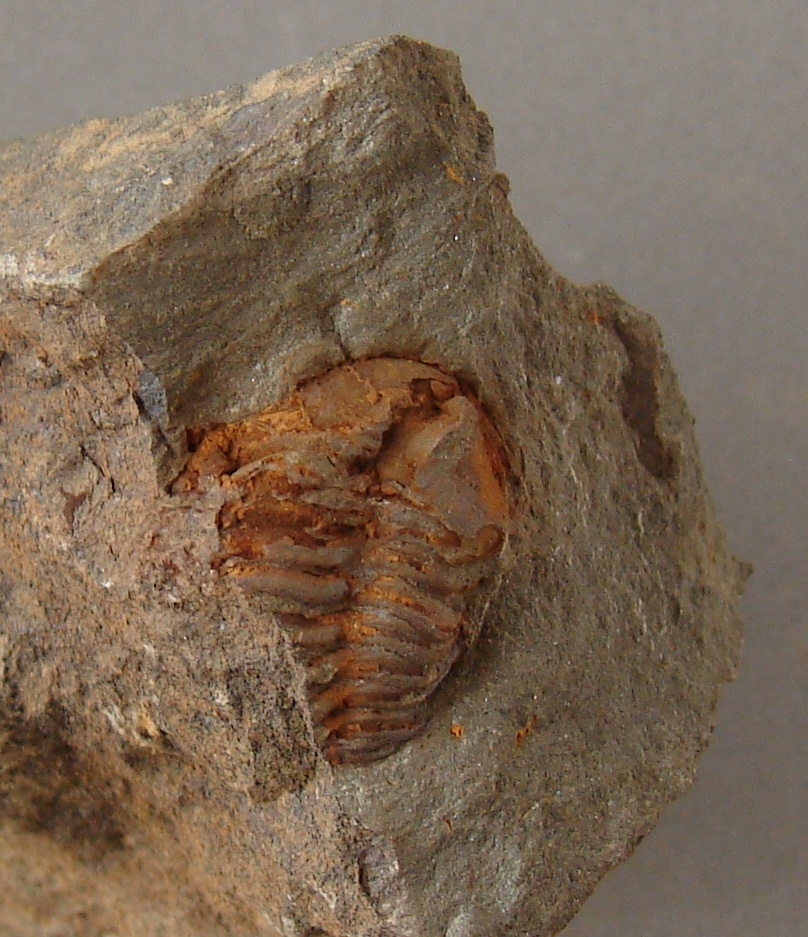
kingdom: Animalia
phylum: Arthropoda
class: Trilobita
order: Phacopida
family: Acastidae
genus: Acastoides
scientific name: Acastoides
